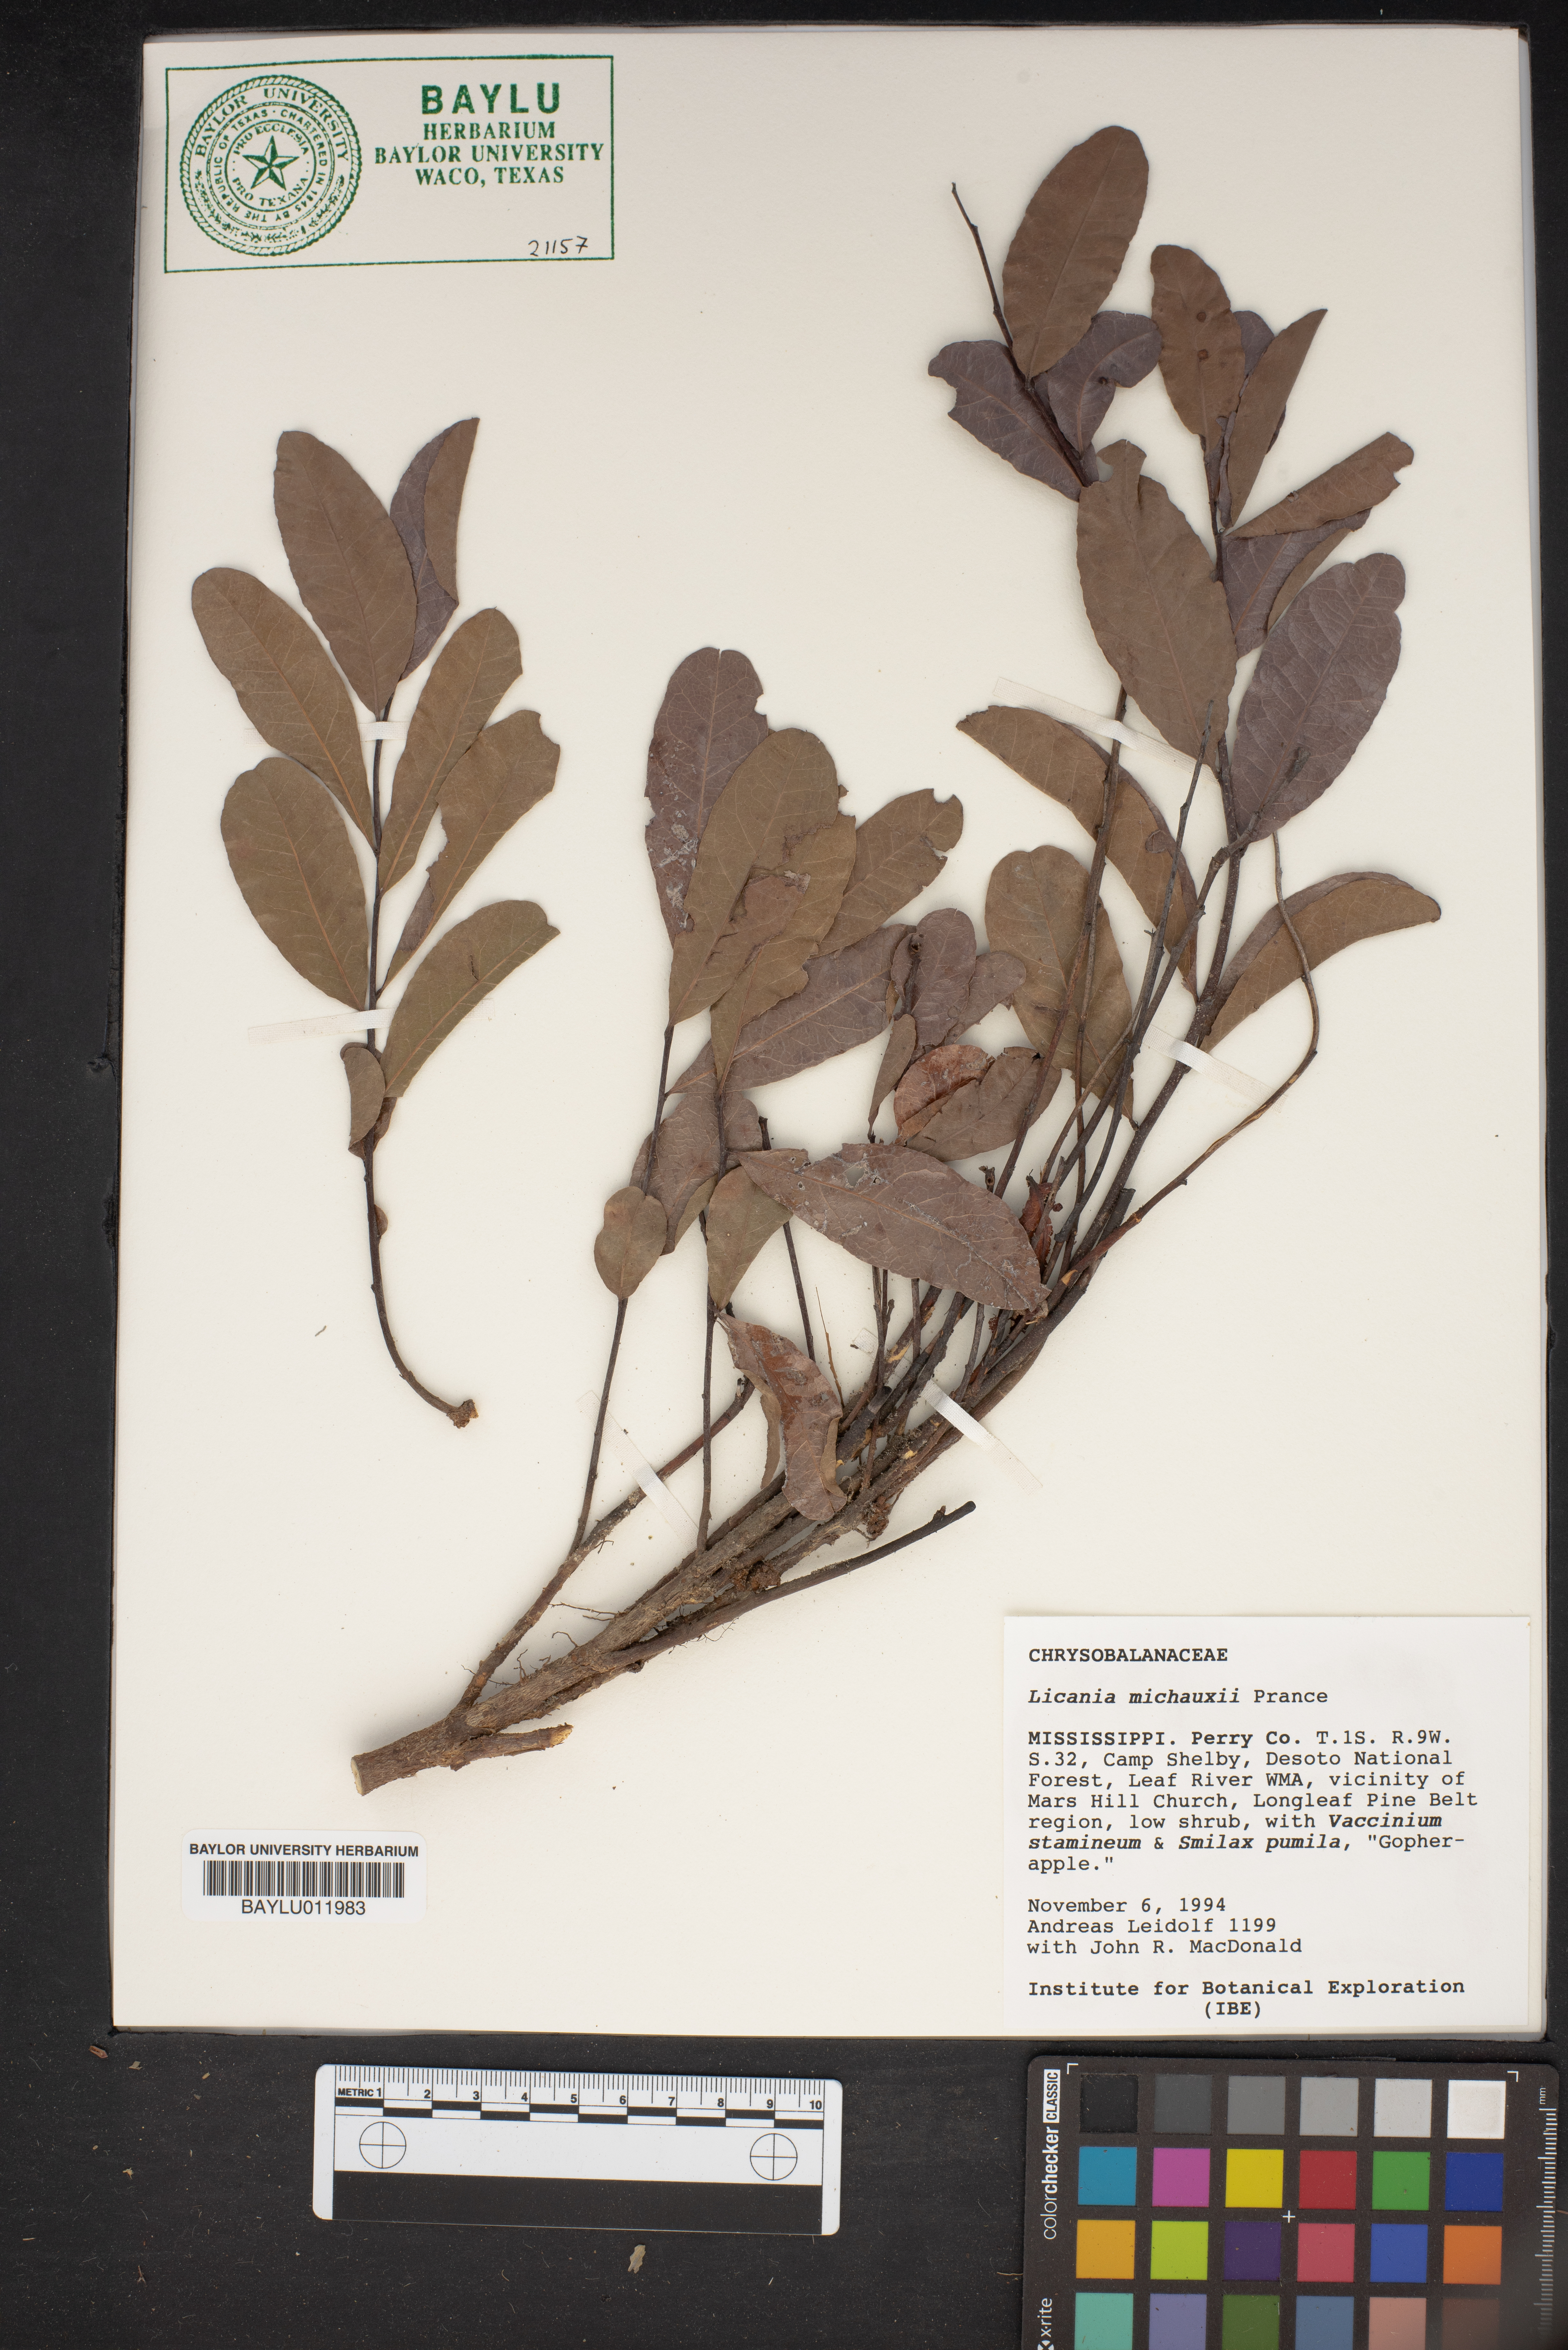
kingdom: Plantae
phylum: Tracheophyta
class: Magnoliopsida
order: Malpighiales
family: Chrysobalanaceae
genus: Geobalanus
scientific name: Geobalanus oblongifolius
